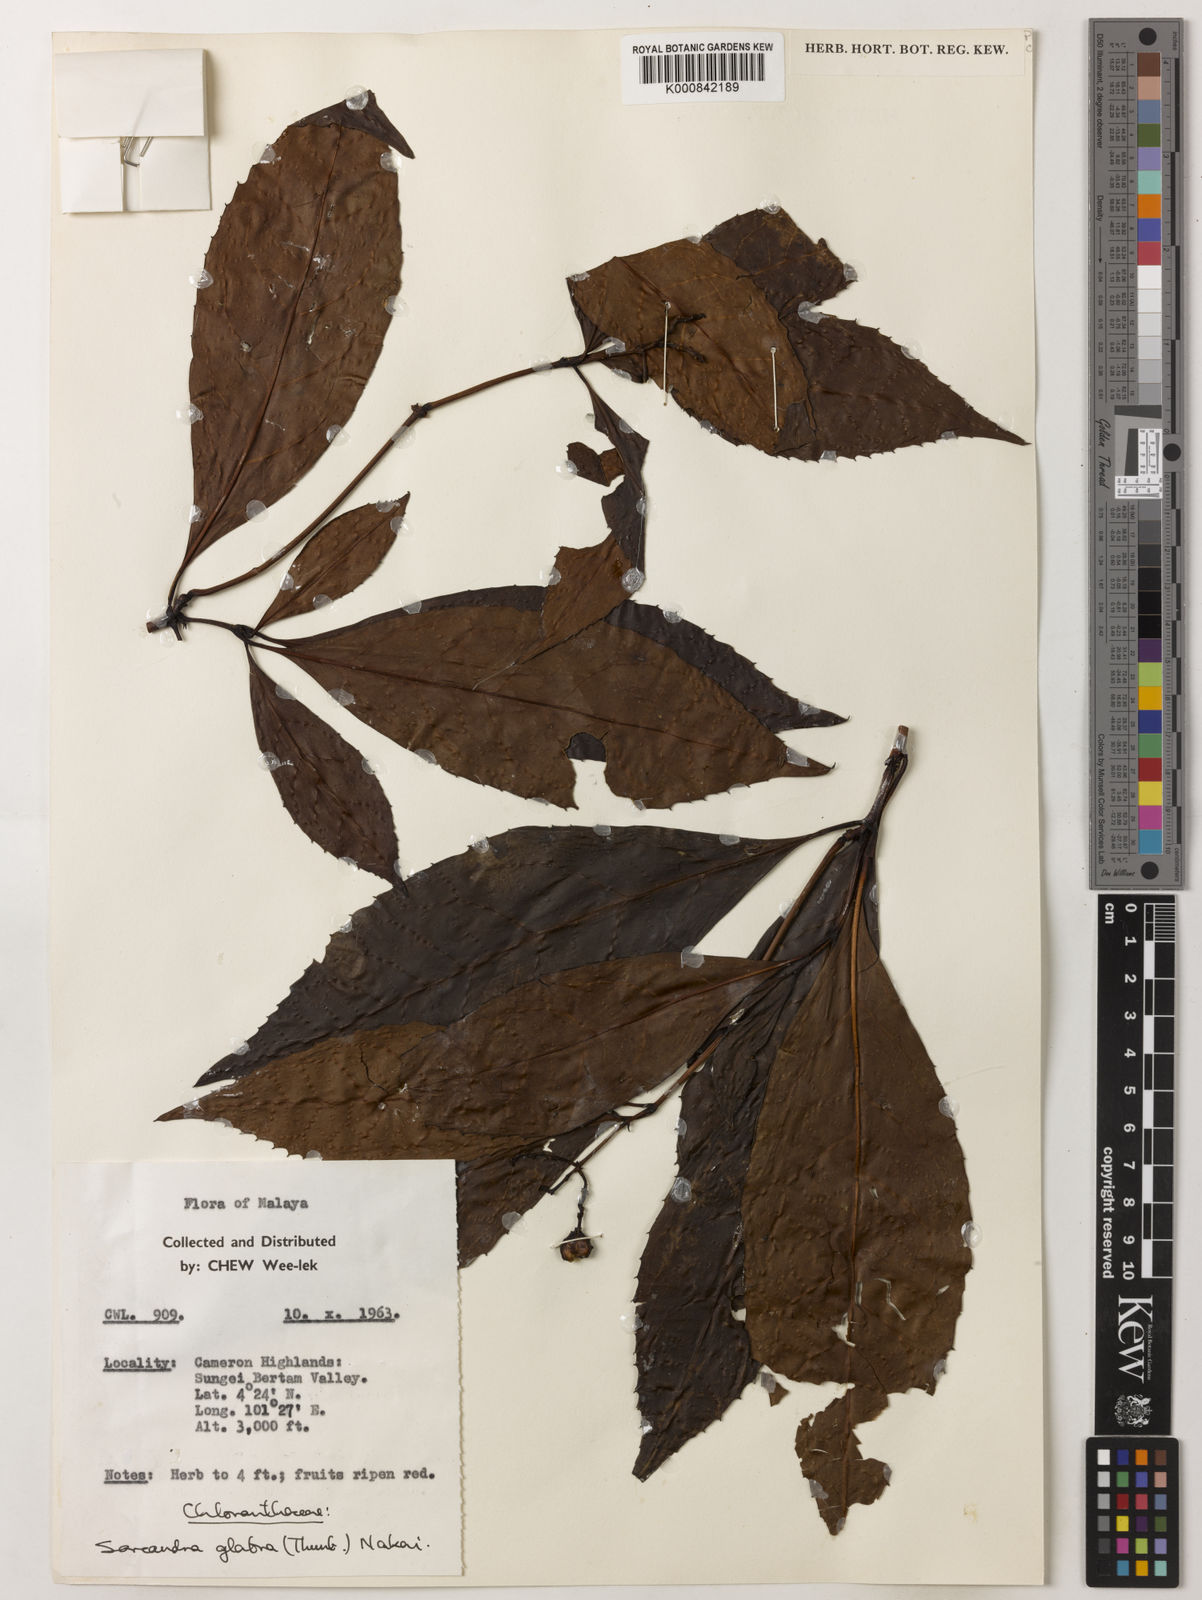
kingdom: Plantae
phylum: Tracheophyta
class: Magnoliopsida
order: Chloranthales
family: Chloranthaceae
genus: Sarcandra
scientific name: Sarcandra glabra
